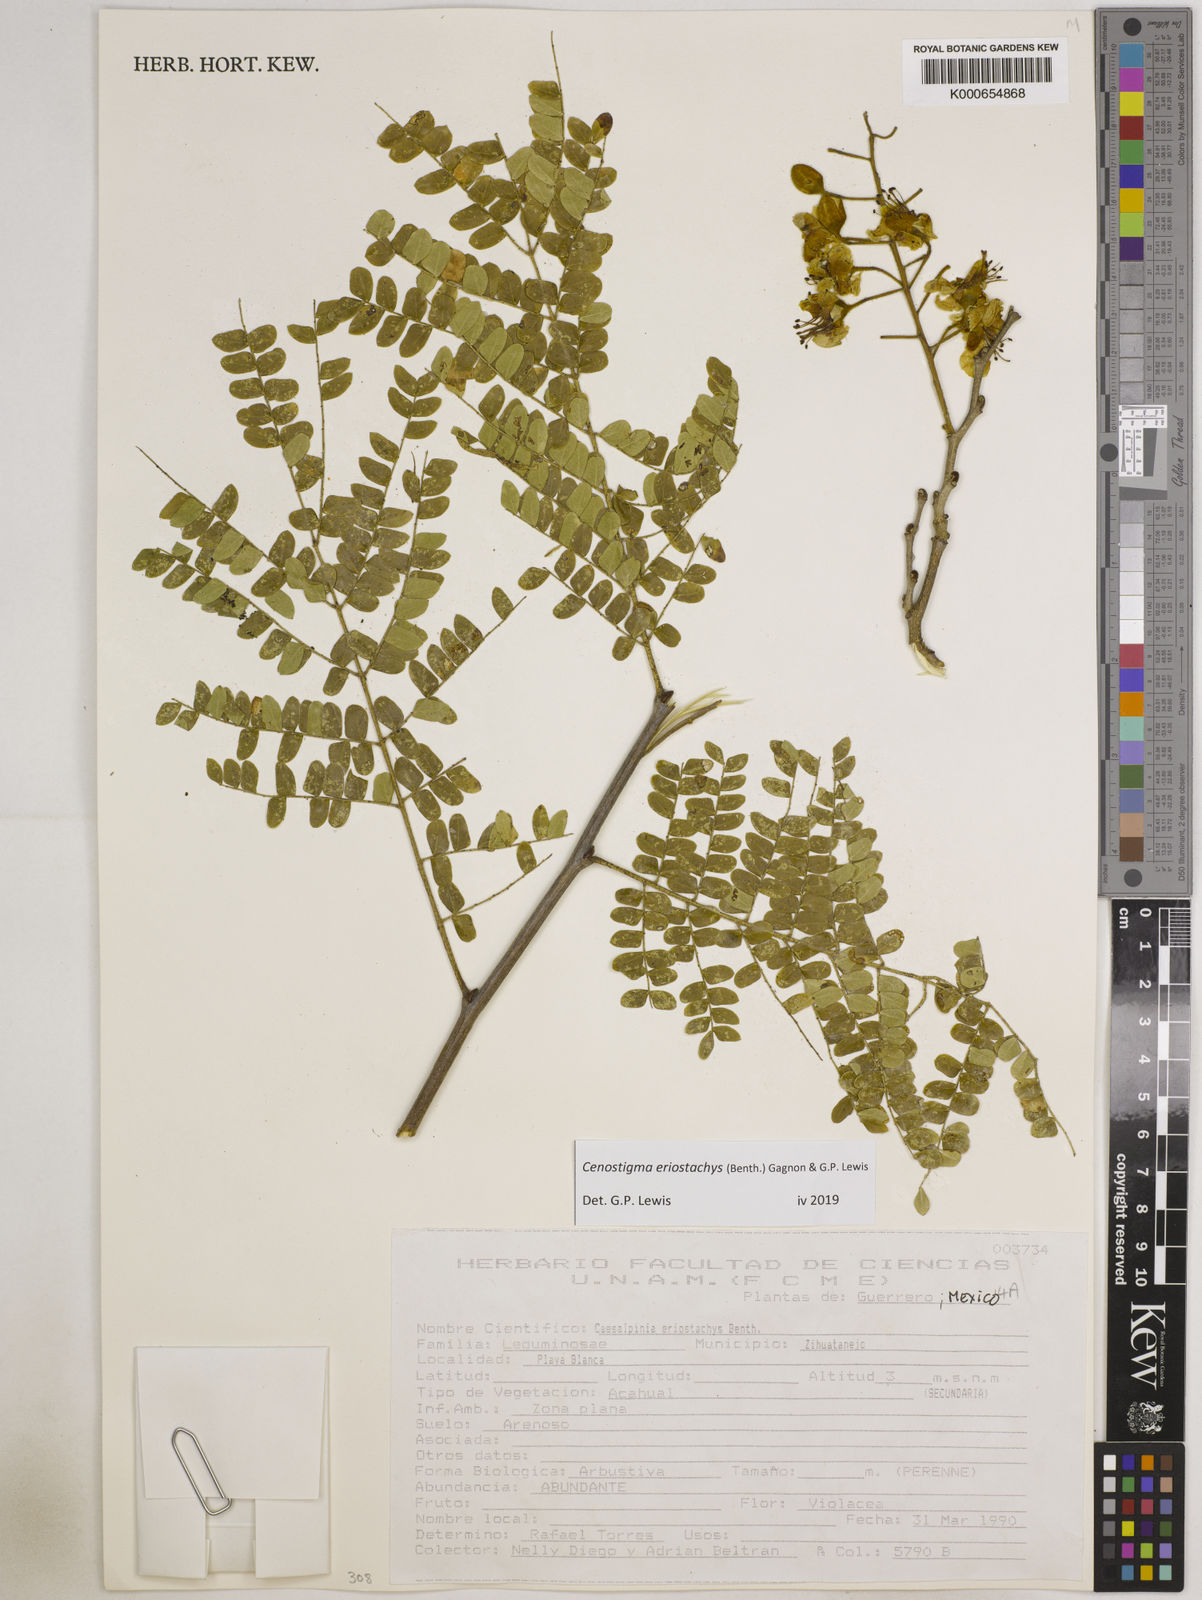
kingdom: Plantae
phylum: Tracheophyta
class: Magnoliopsida
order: Fabales
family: Fabaceae
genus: Cenostigma
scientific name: Cenostigma eriostachys
